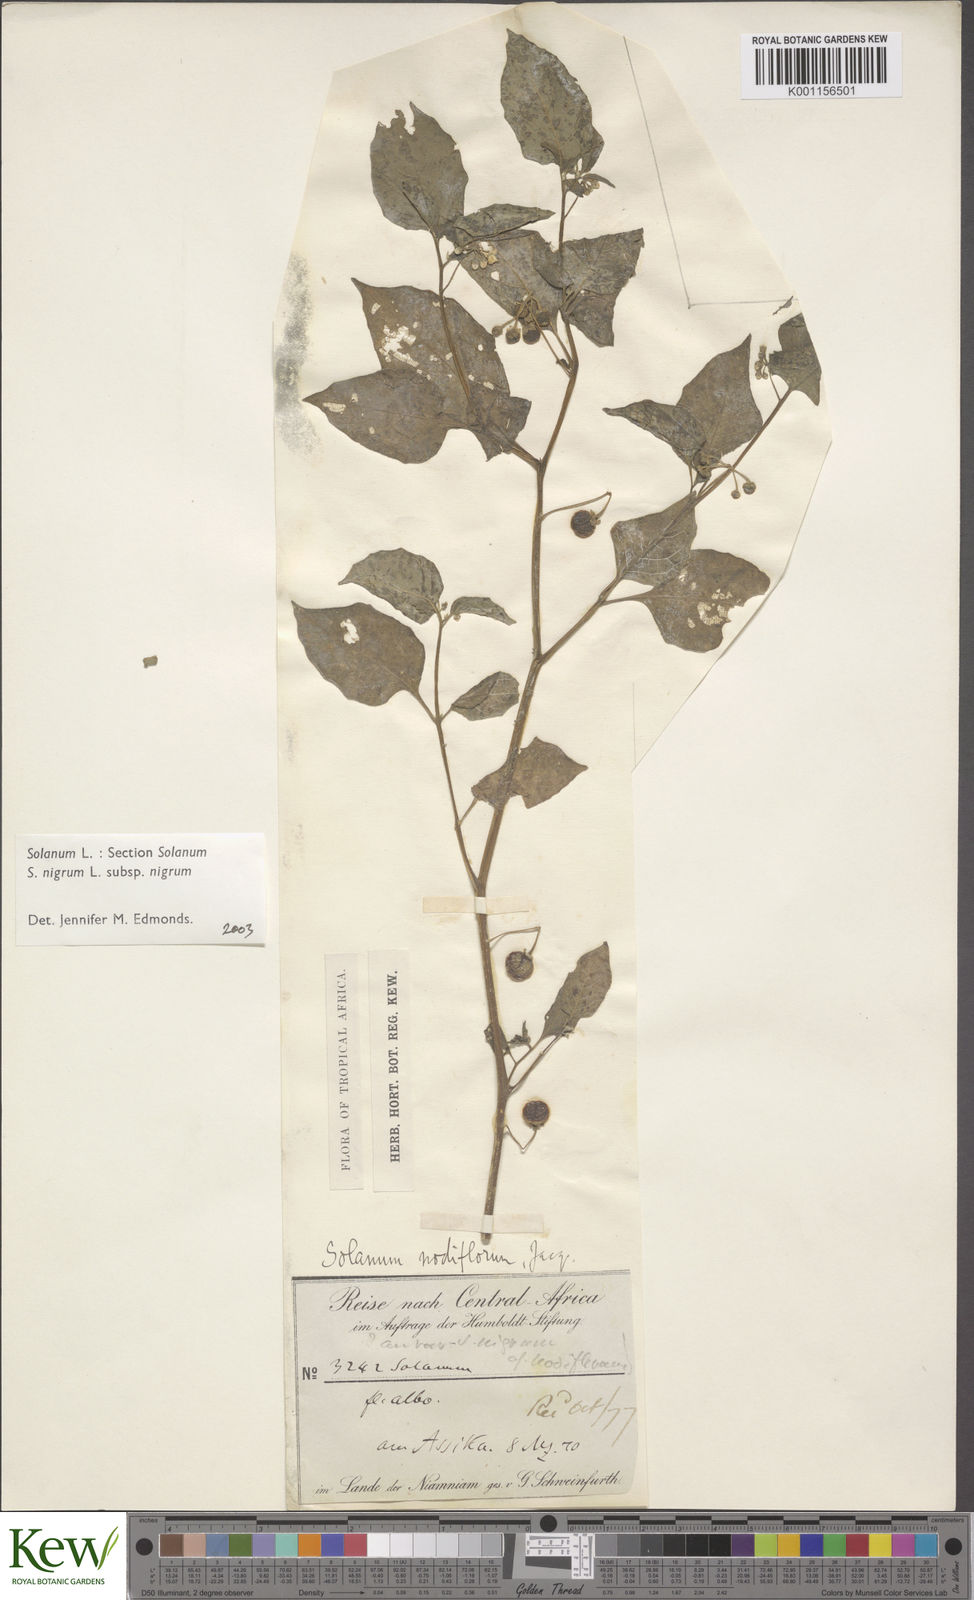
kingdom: Plantae
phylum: Tracheophyta
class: Magnoliopsida
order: Solanales
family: Solanaceae
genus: Solanum
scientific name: Solanum nigrum
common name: Black nightshade
